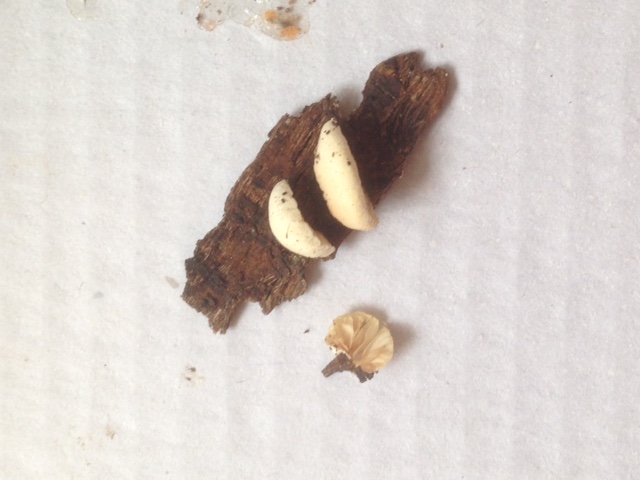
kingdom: Fungi
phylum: Basidiomycota
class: Agaricomycetes
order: Agaricales
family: Crepidotaceae
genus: Crepidotus
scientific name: Crepidotus cesatii
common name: almindelig muslingesvamp
